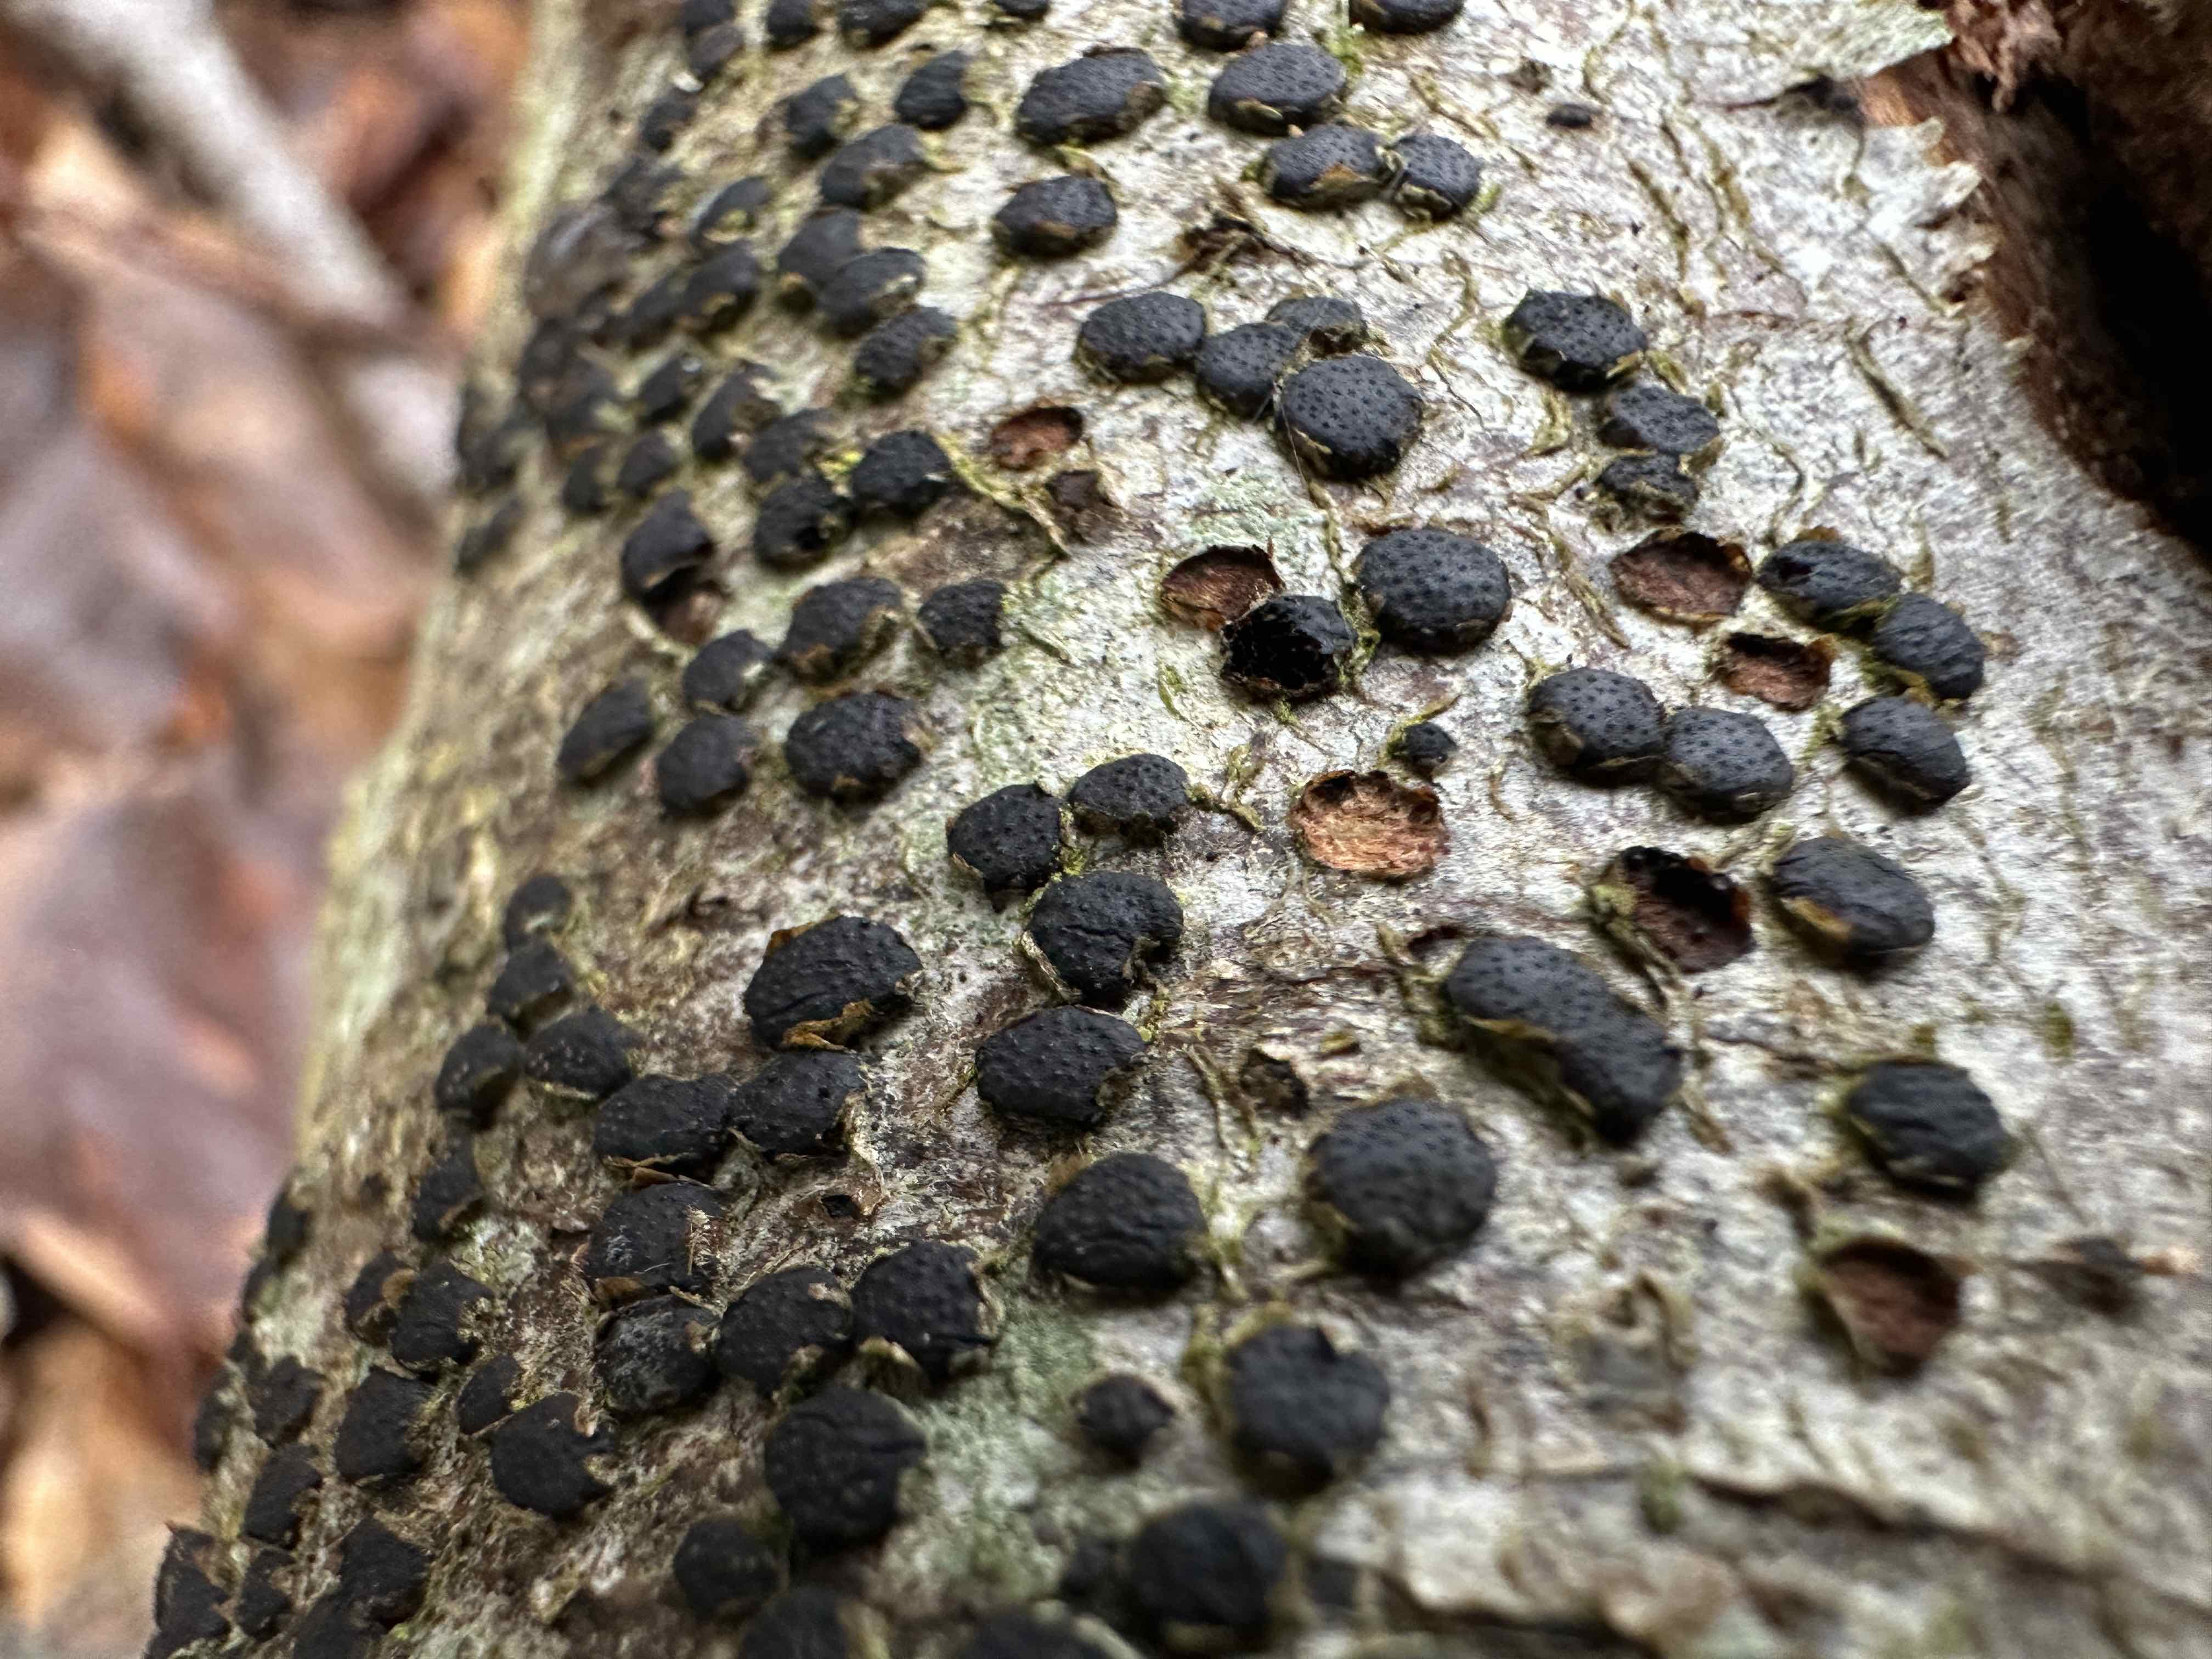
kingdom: Fungi
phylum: Ascomycota
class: Sordariomycetes
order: Xylariales
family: Diatrypaceae
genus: Diatrype
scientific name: Diatrype disciformis
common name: kant-kulskorpe
